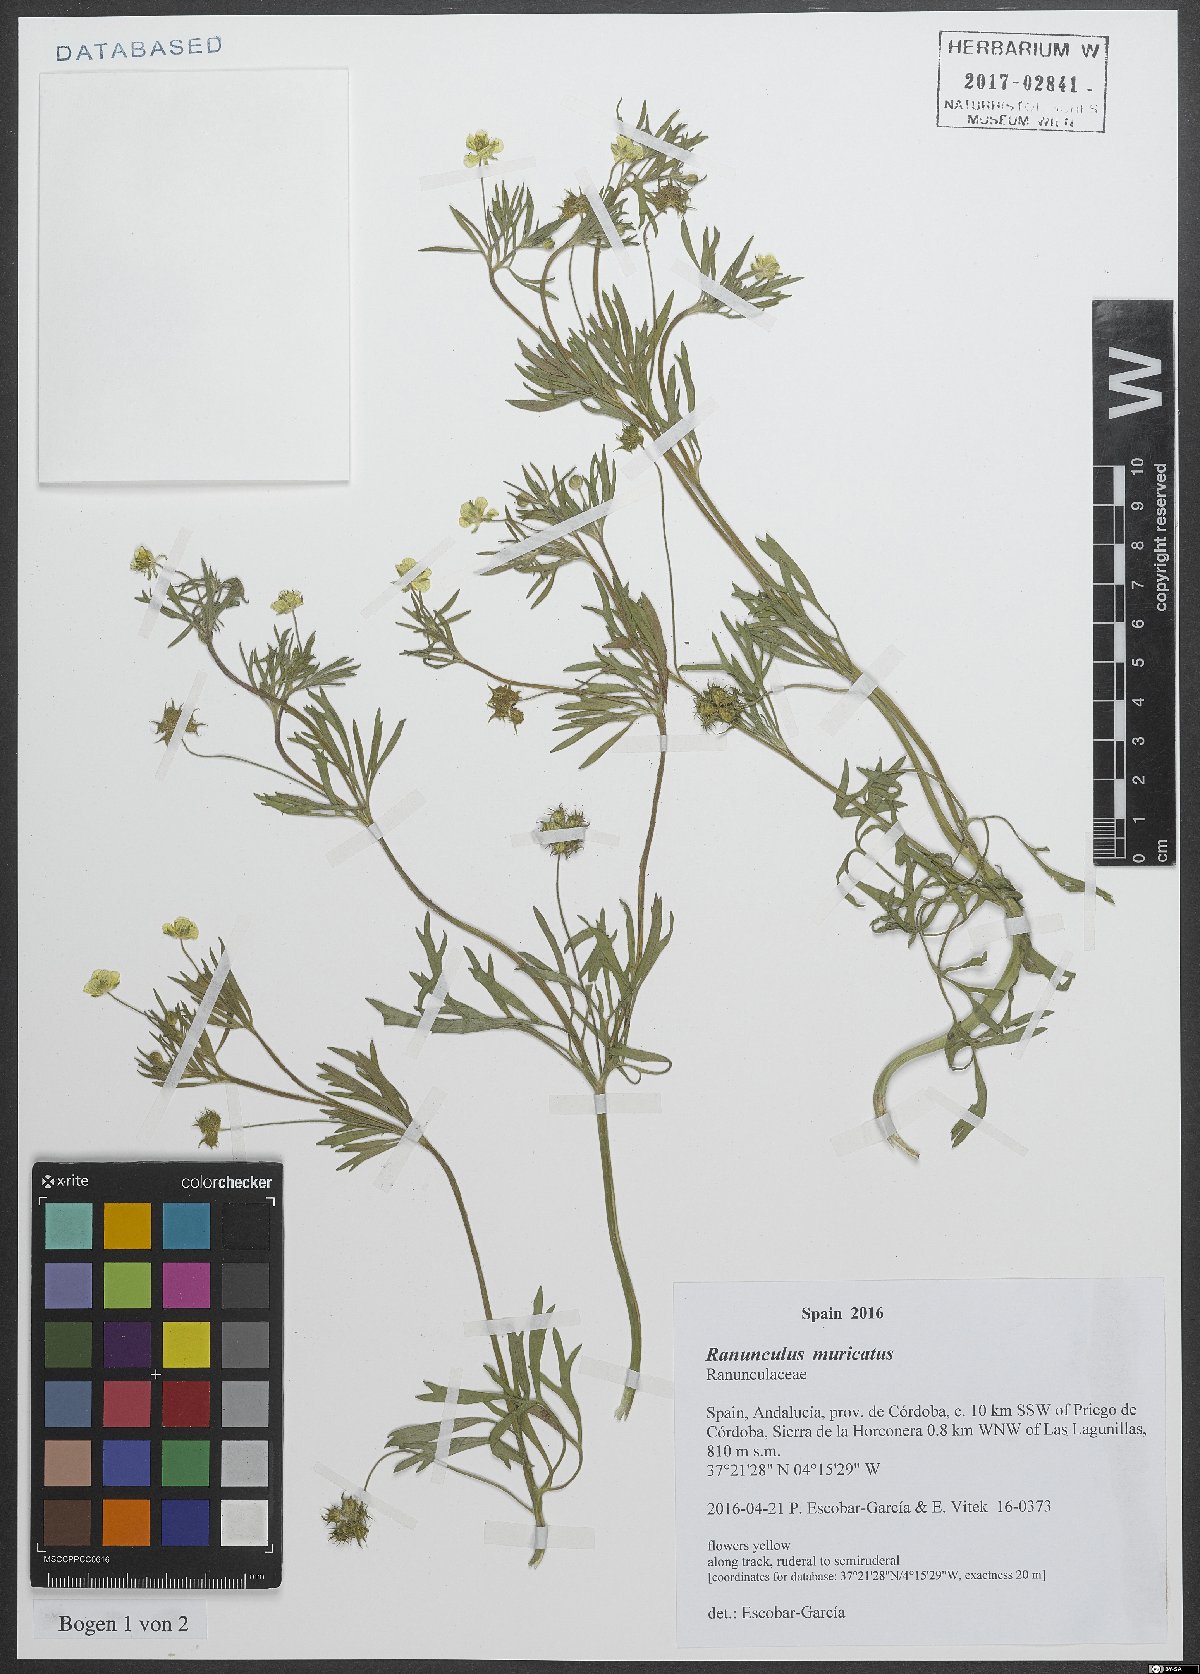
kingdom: Plantae
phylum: Tracheophyta
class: Magnoliopsida
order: Ranunculales
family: Ranunculaceae
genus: Ranunculus
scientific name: Ranunculus muricatus
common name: Rough-fruited buttercup
